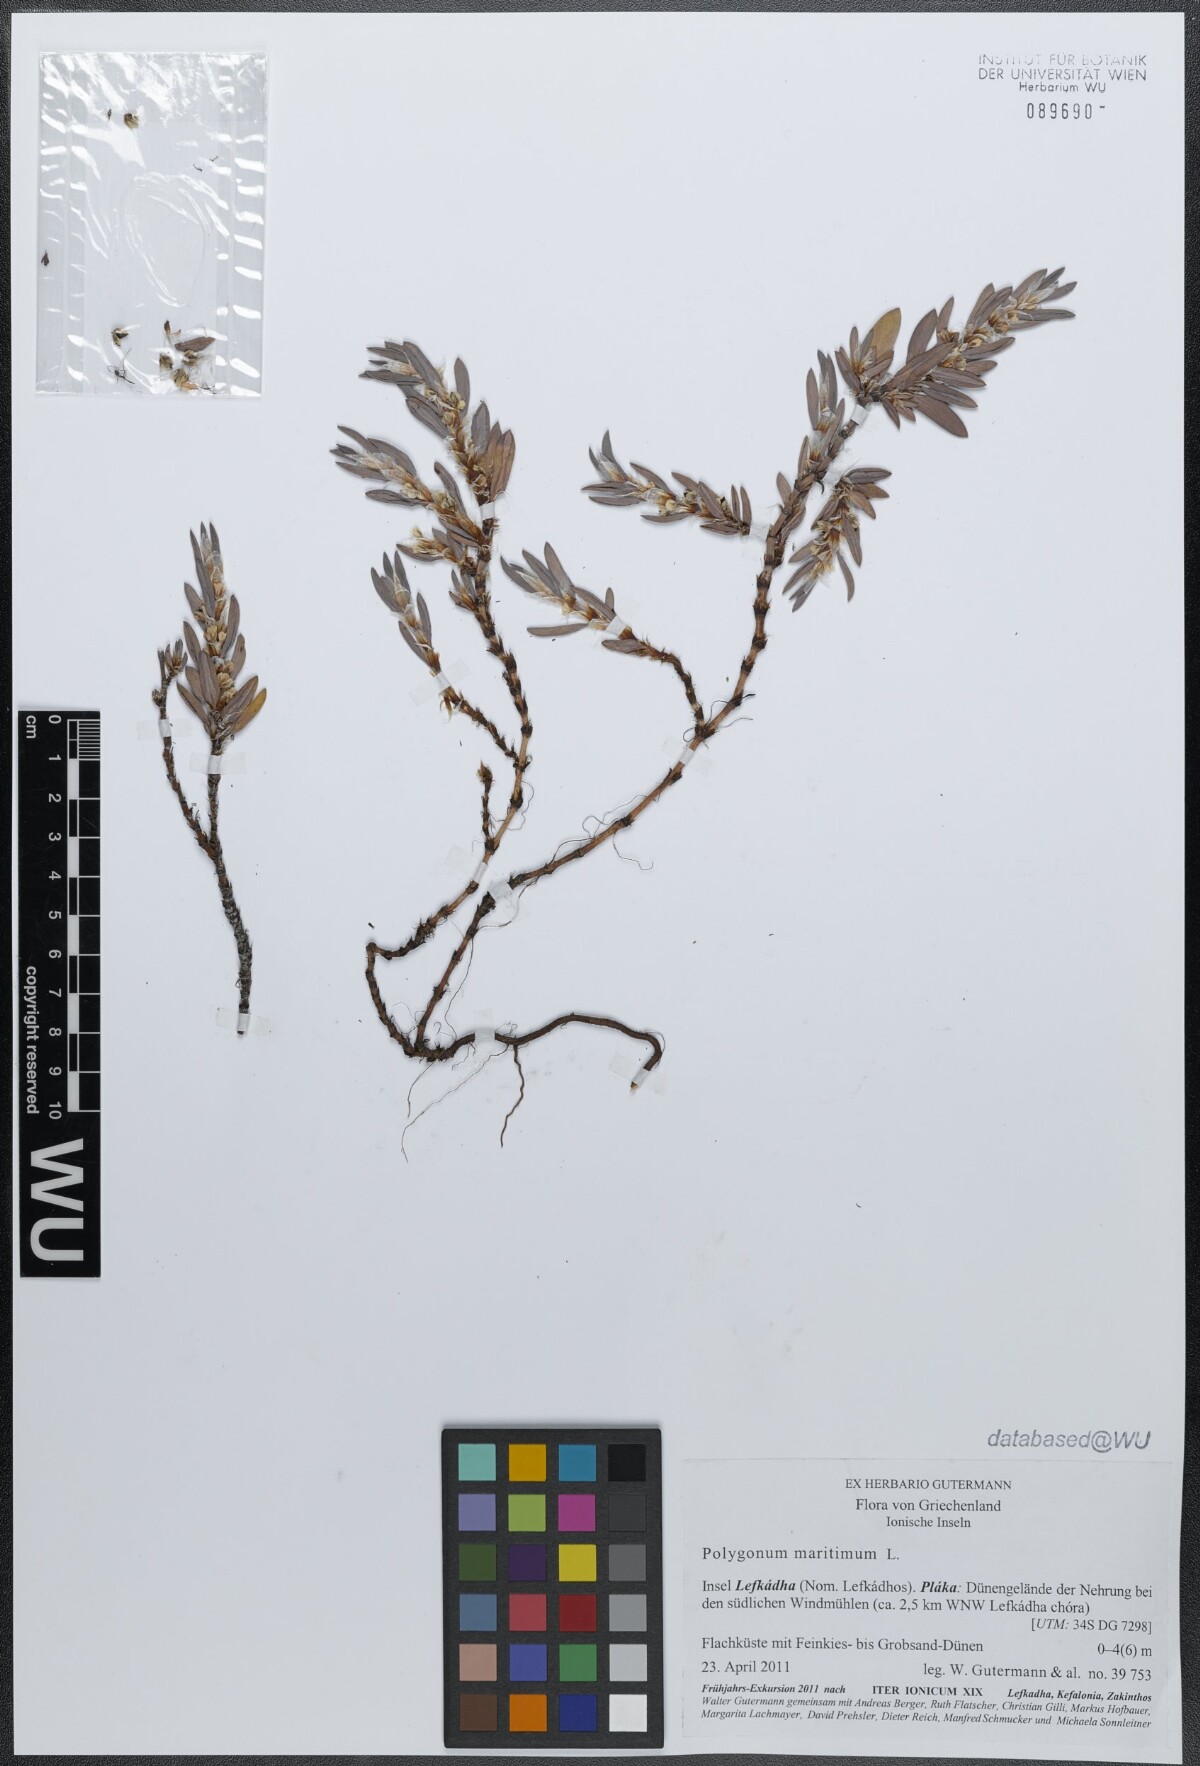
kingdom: Plantae
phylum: Tracheophyta
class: Magnoliopsida
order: Caryophyllales
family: Polygonaceae
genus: Polygonum
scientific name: Polygonum maritimum
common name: Sea knotgrass
